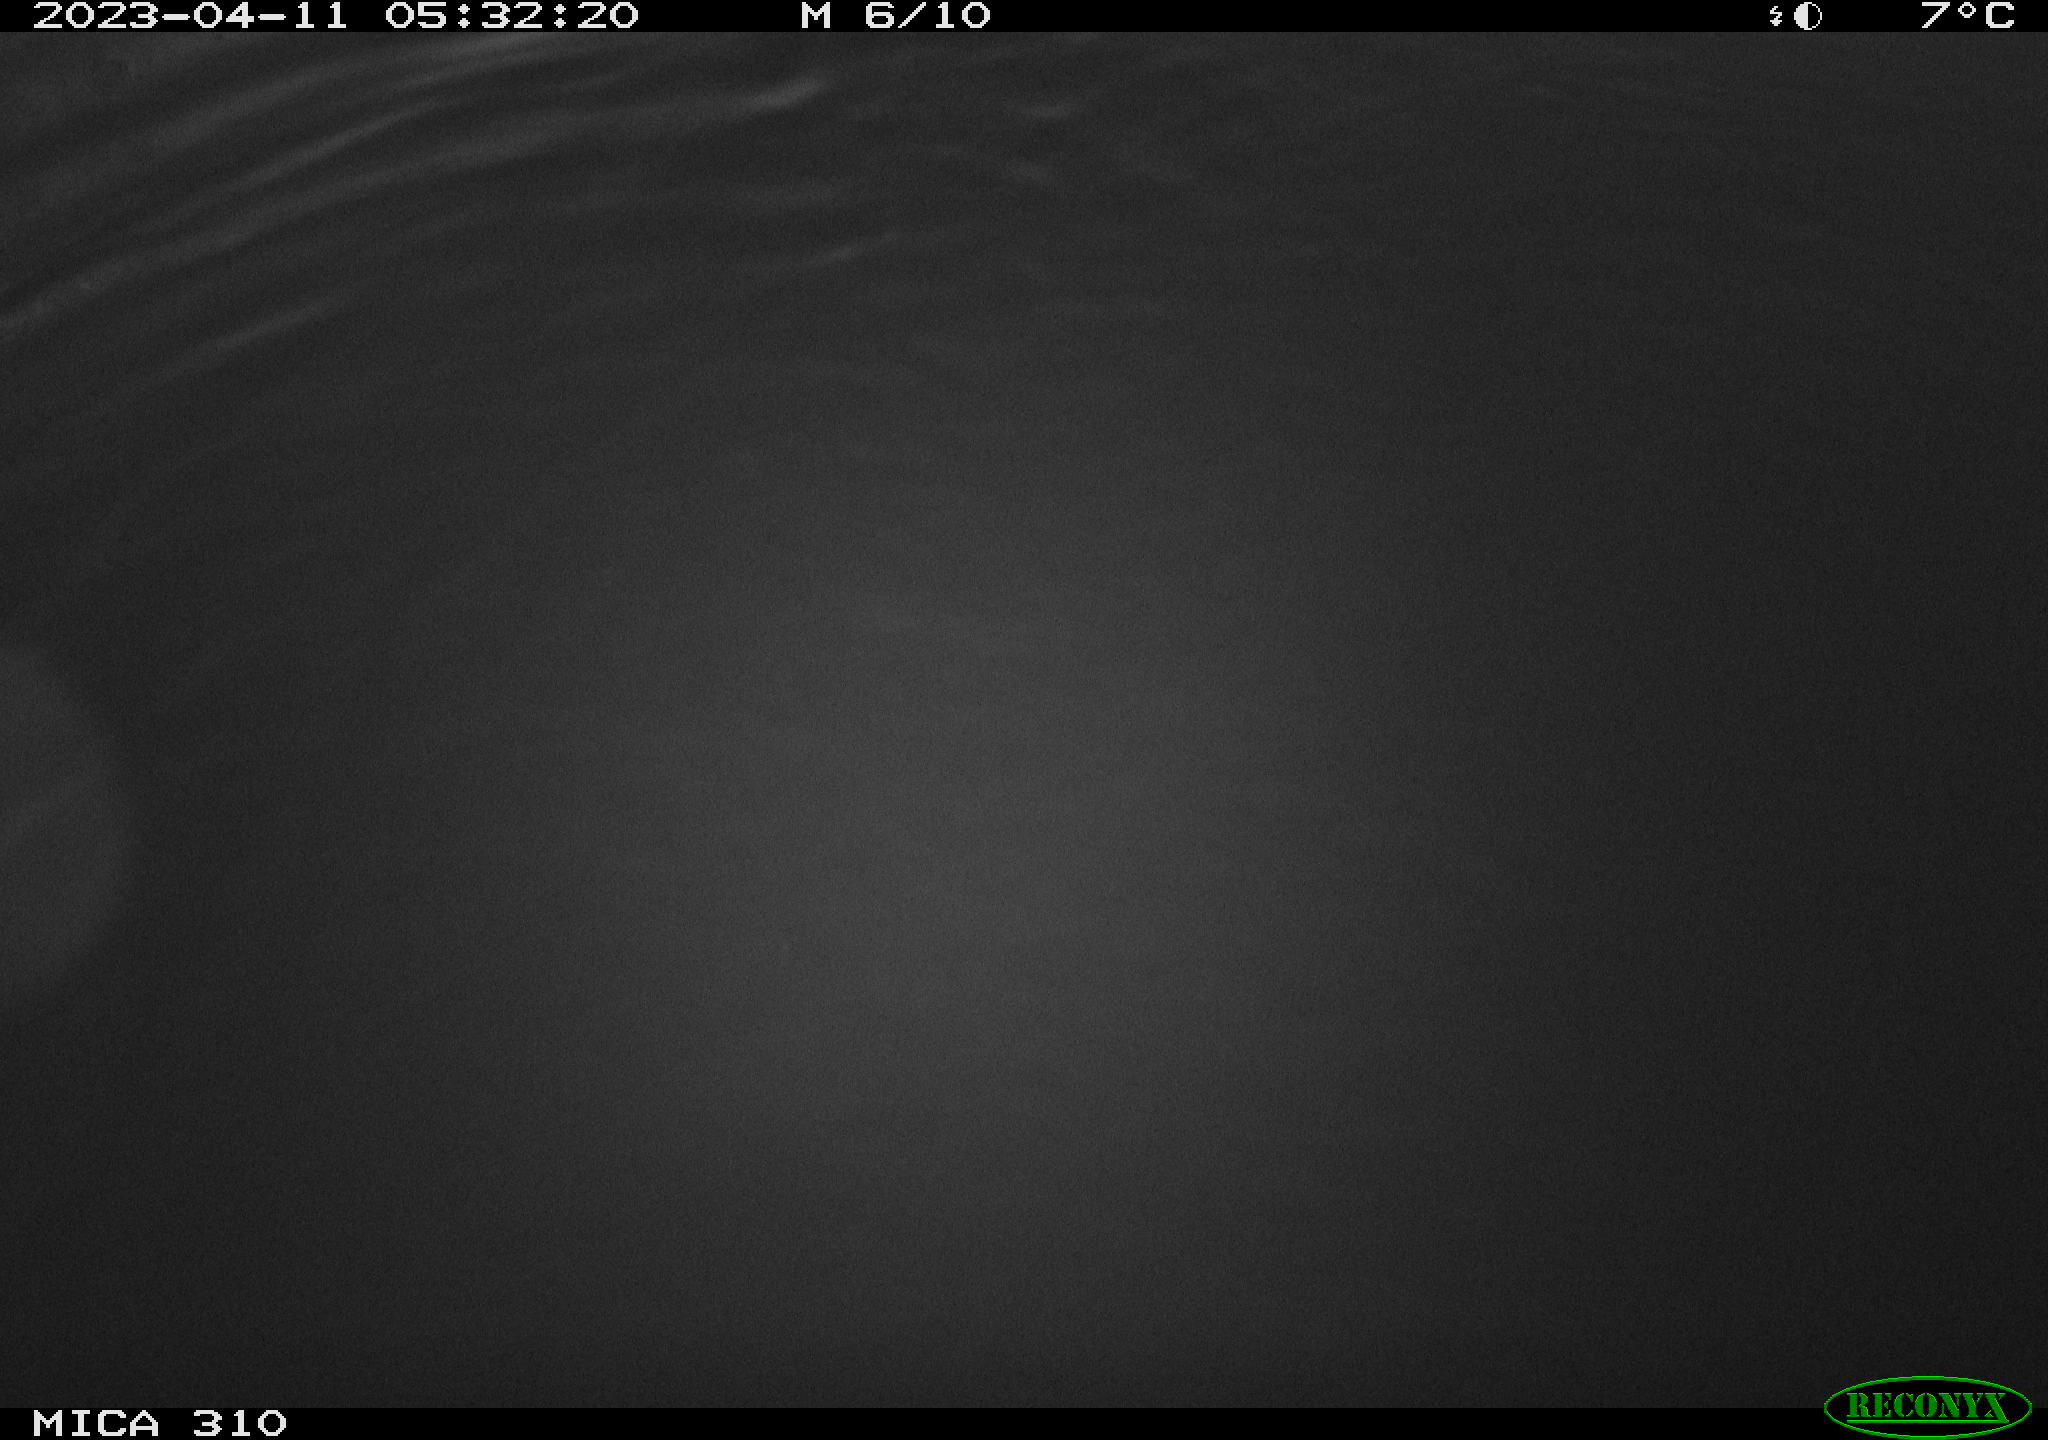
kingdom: Animalia
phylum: Chordata
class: Aves
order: Anseriformes
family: Anatidae
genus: Anas
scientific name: Anas
